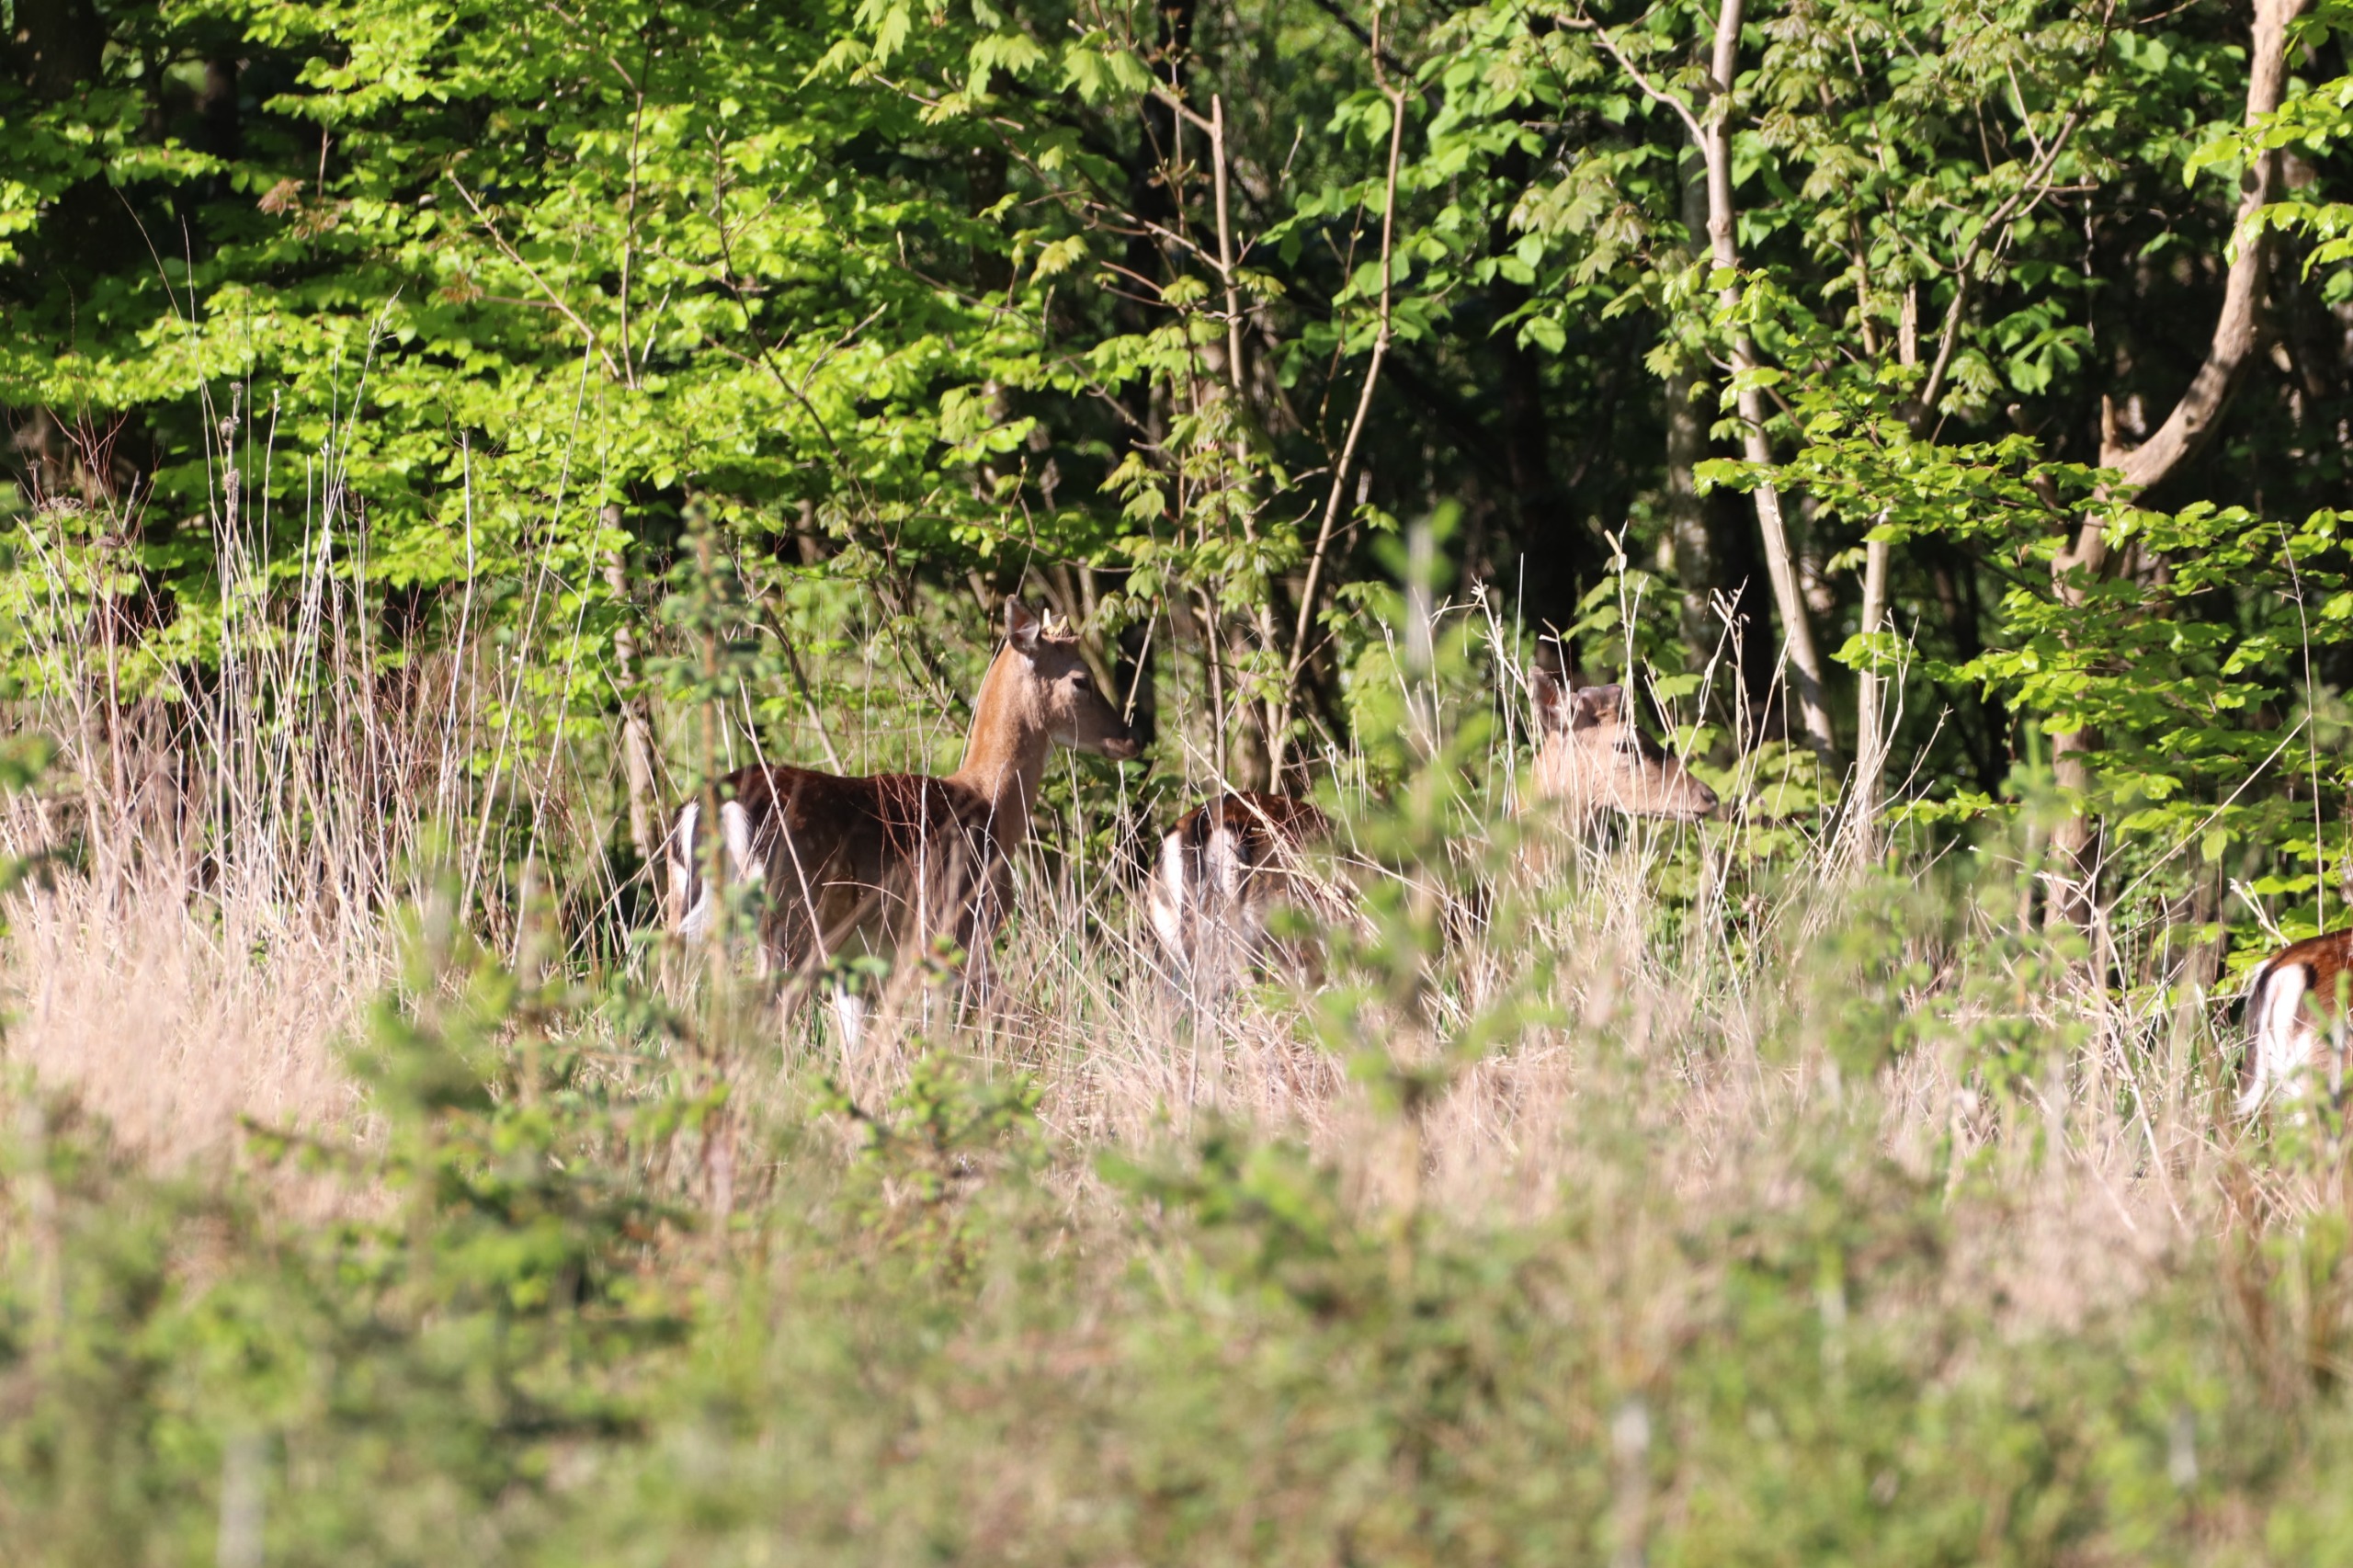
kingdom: Animalia
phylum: Chordata
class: Mammalia
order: Artiodactyla
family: Cervidae
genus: Dama
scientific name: Dama dama
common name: Dådyr
